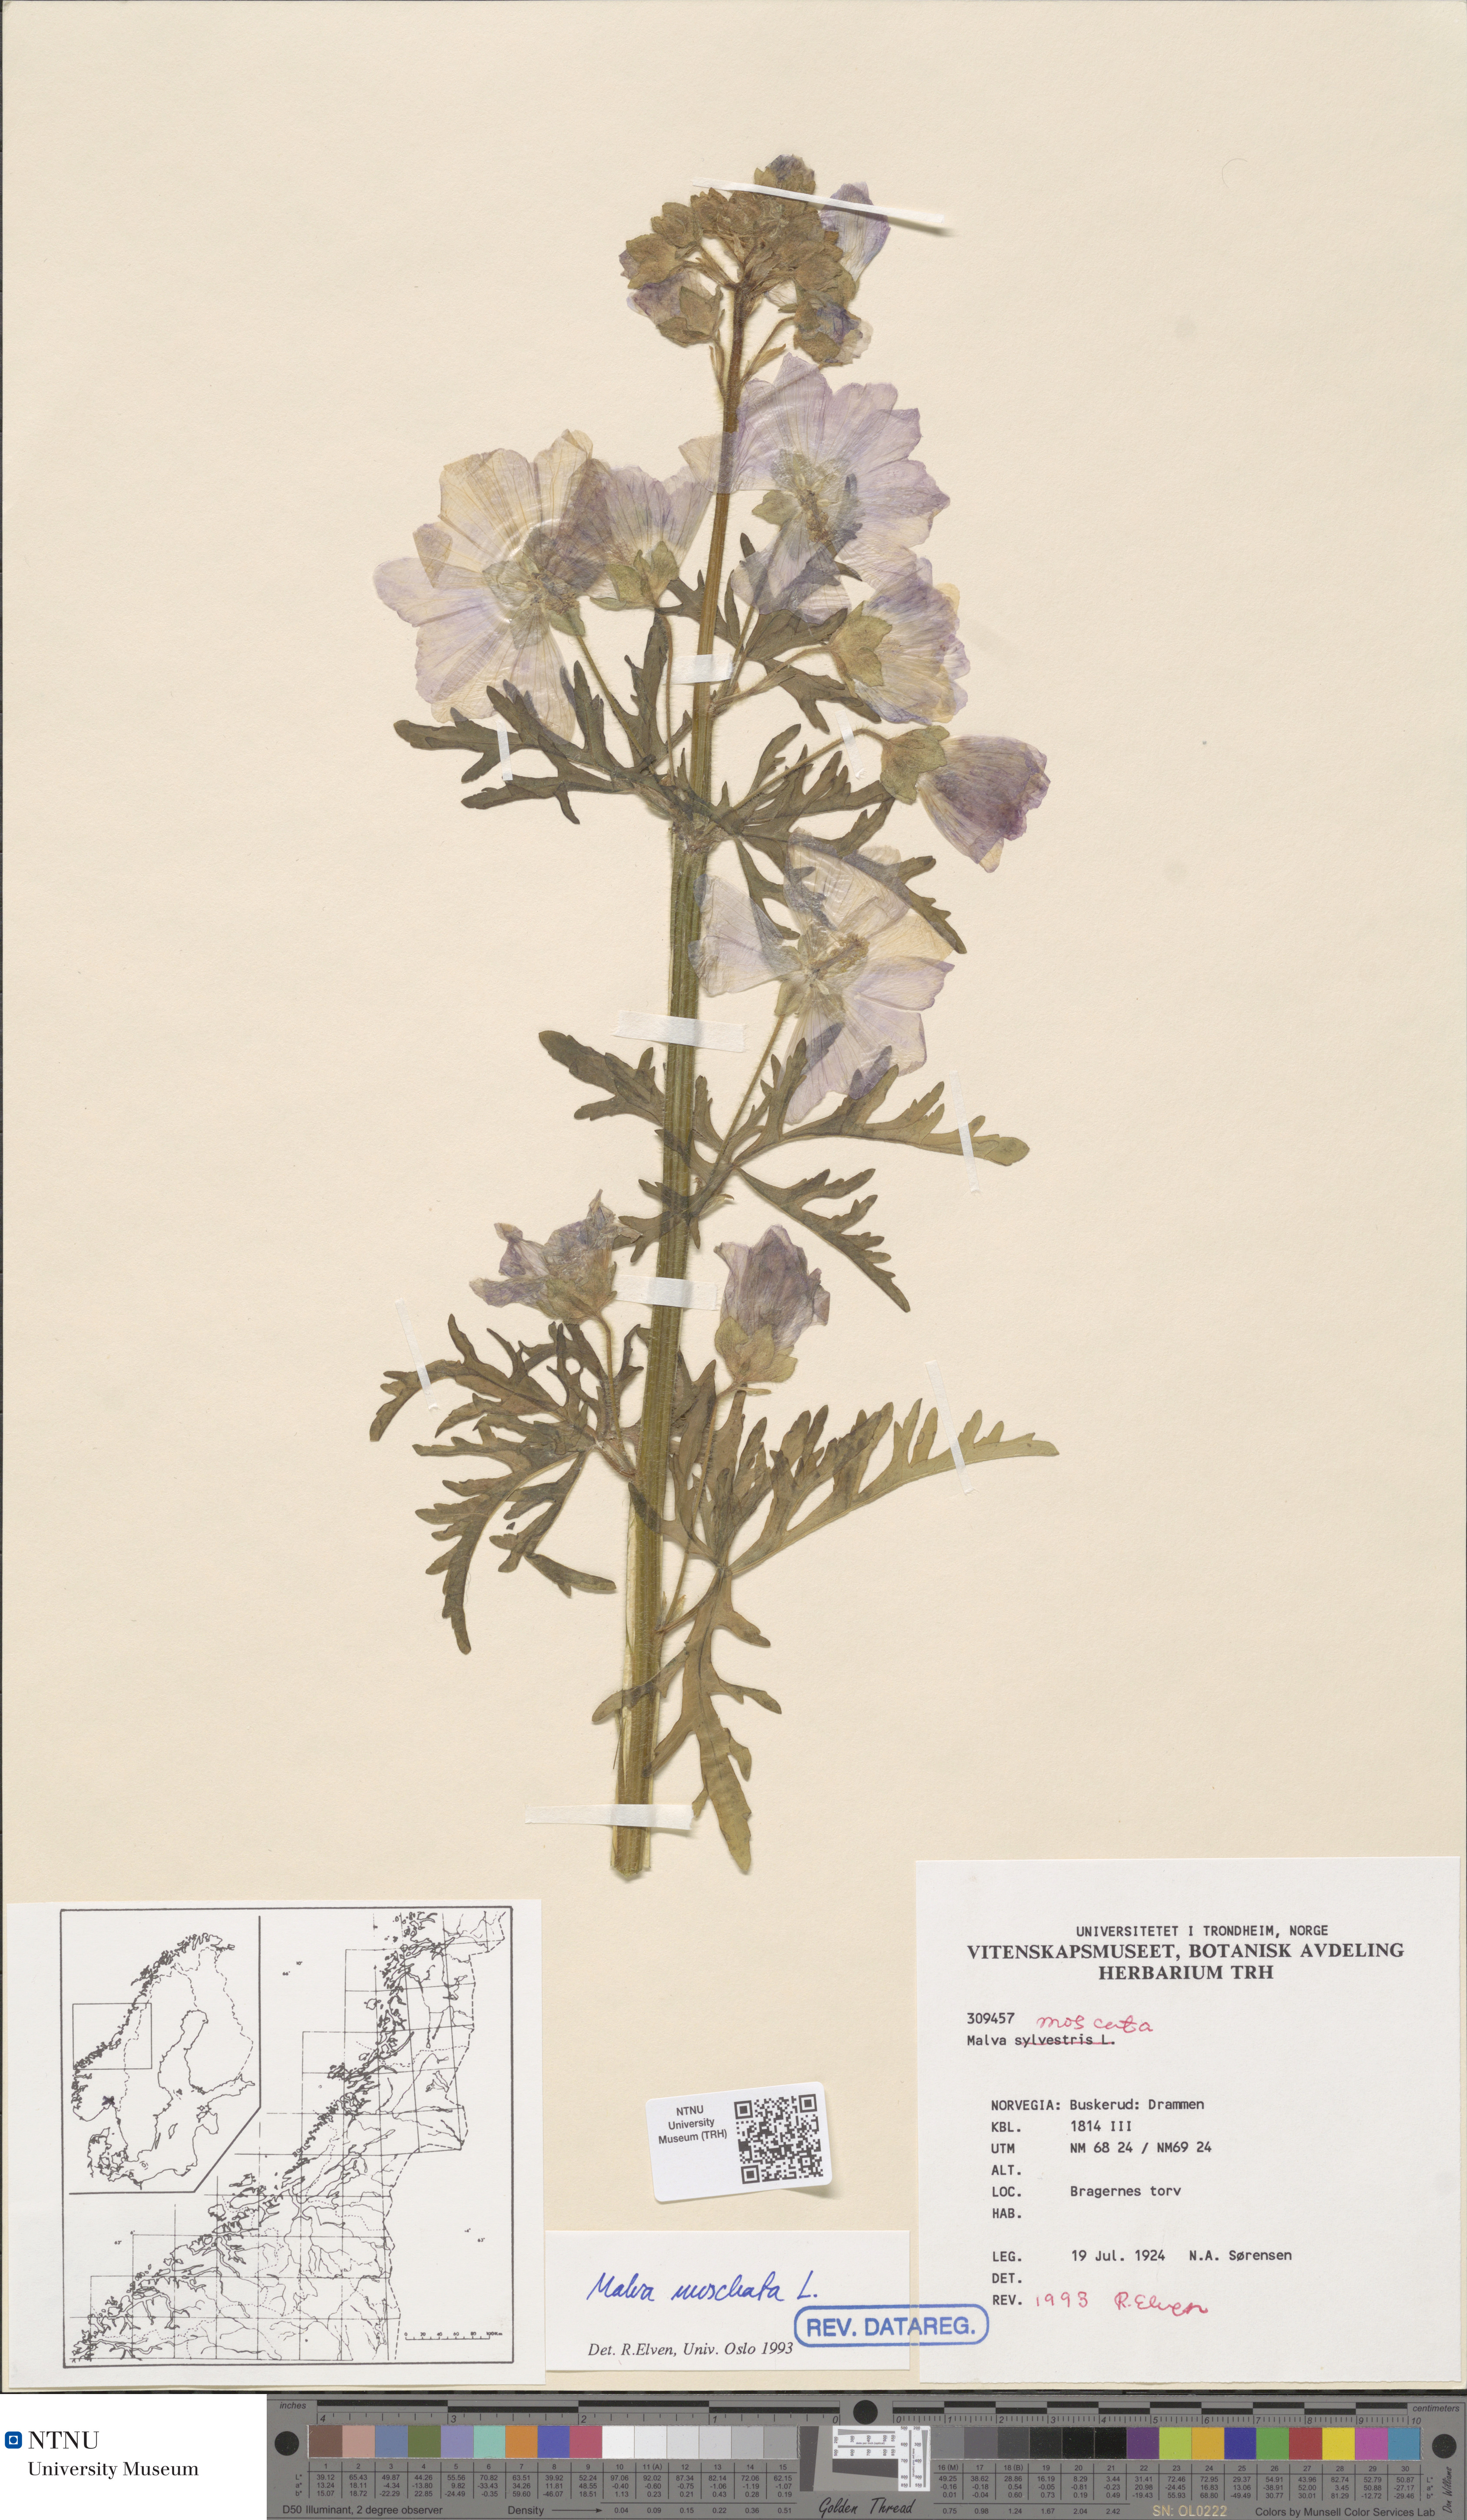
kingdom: Plantae
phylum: Tracheophyta
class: Magnoliopsida
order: Malvales
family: Malvaceae
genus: Malva
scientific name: Malva moschata
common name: Musk mallow
